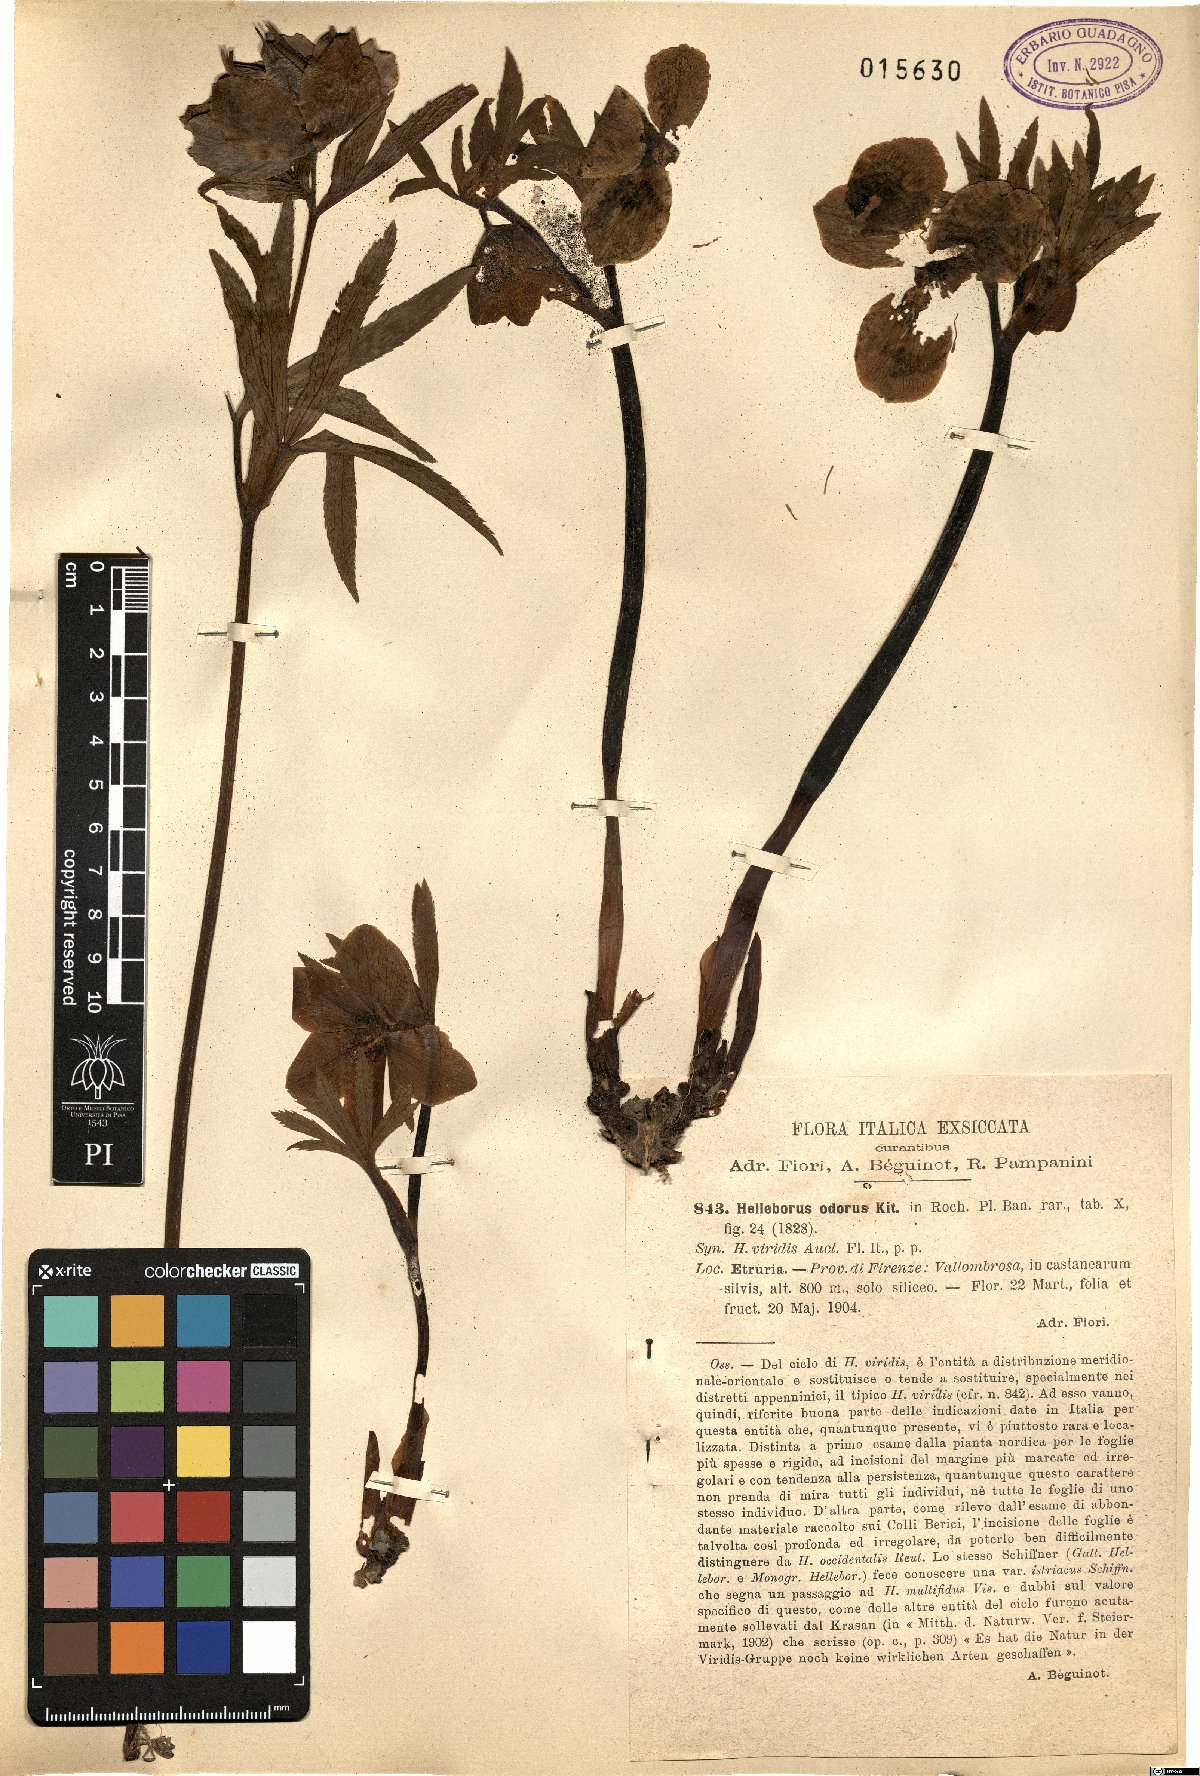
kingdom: Plantae
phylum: Tracheophyta
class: Magnoliopsida
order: Ranunculales
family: Ranunculaceae
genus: Helleborus
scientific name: Helleborus odorus
